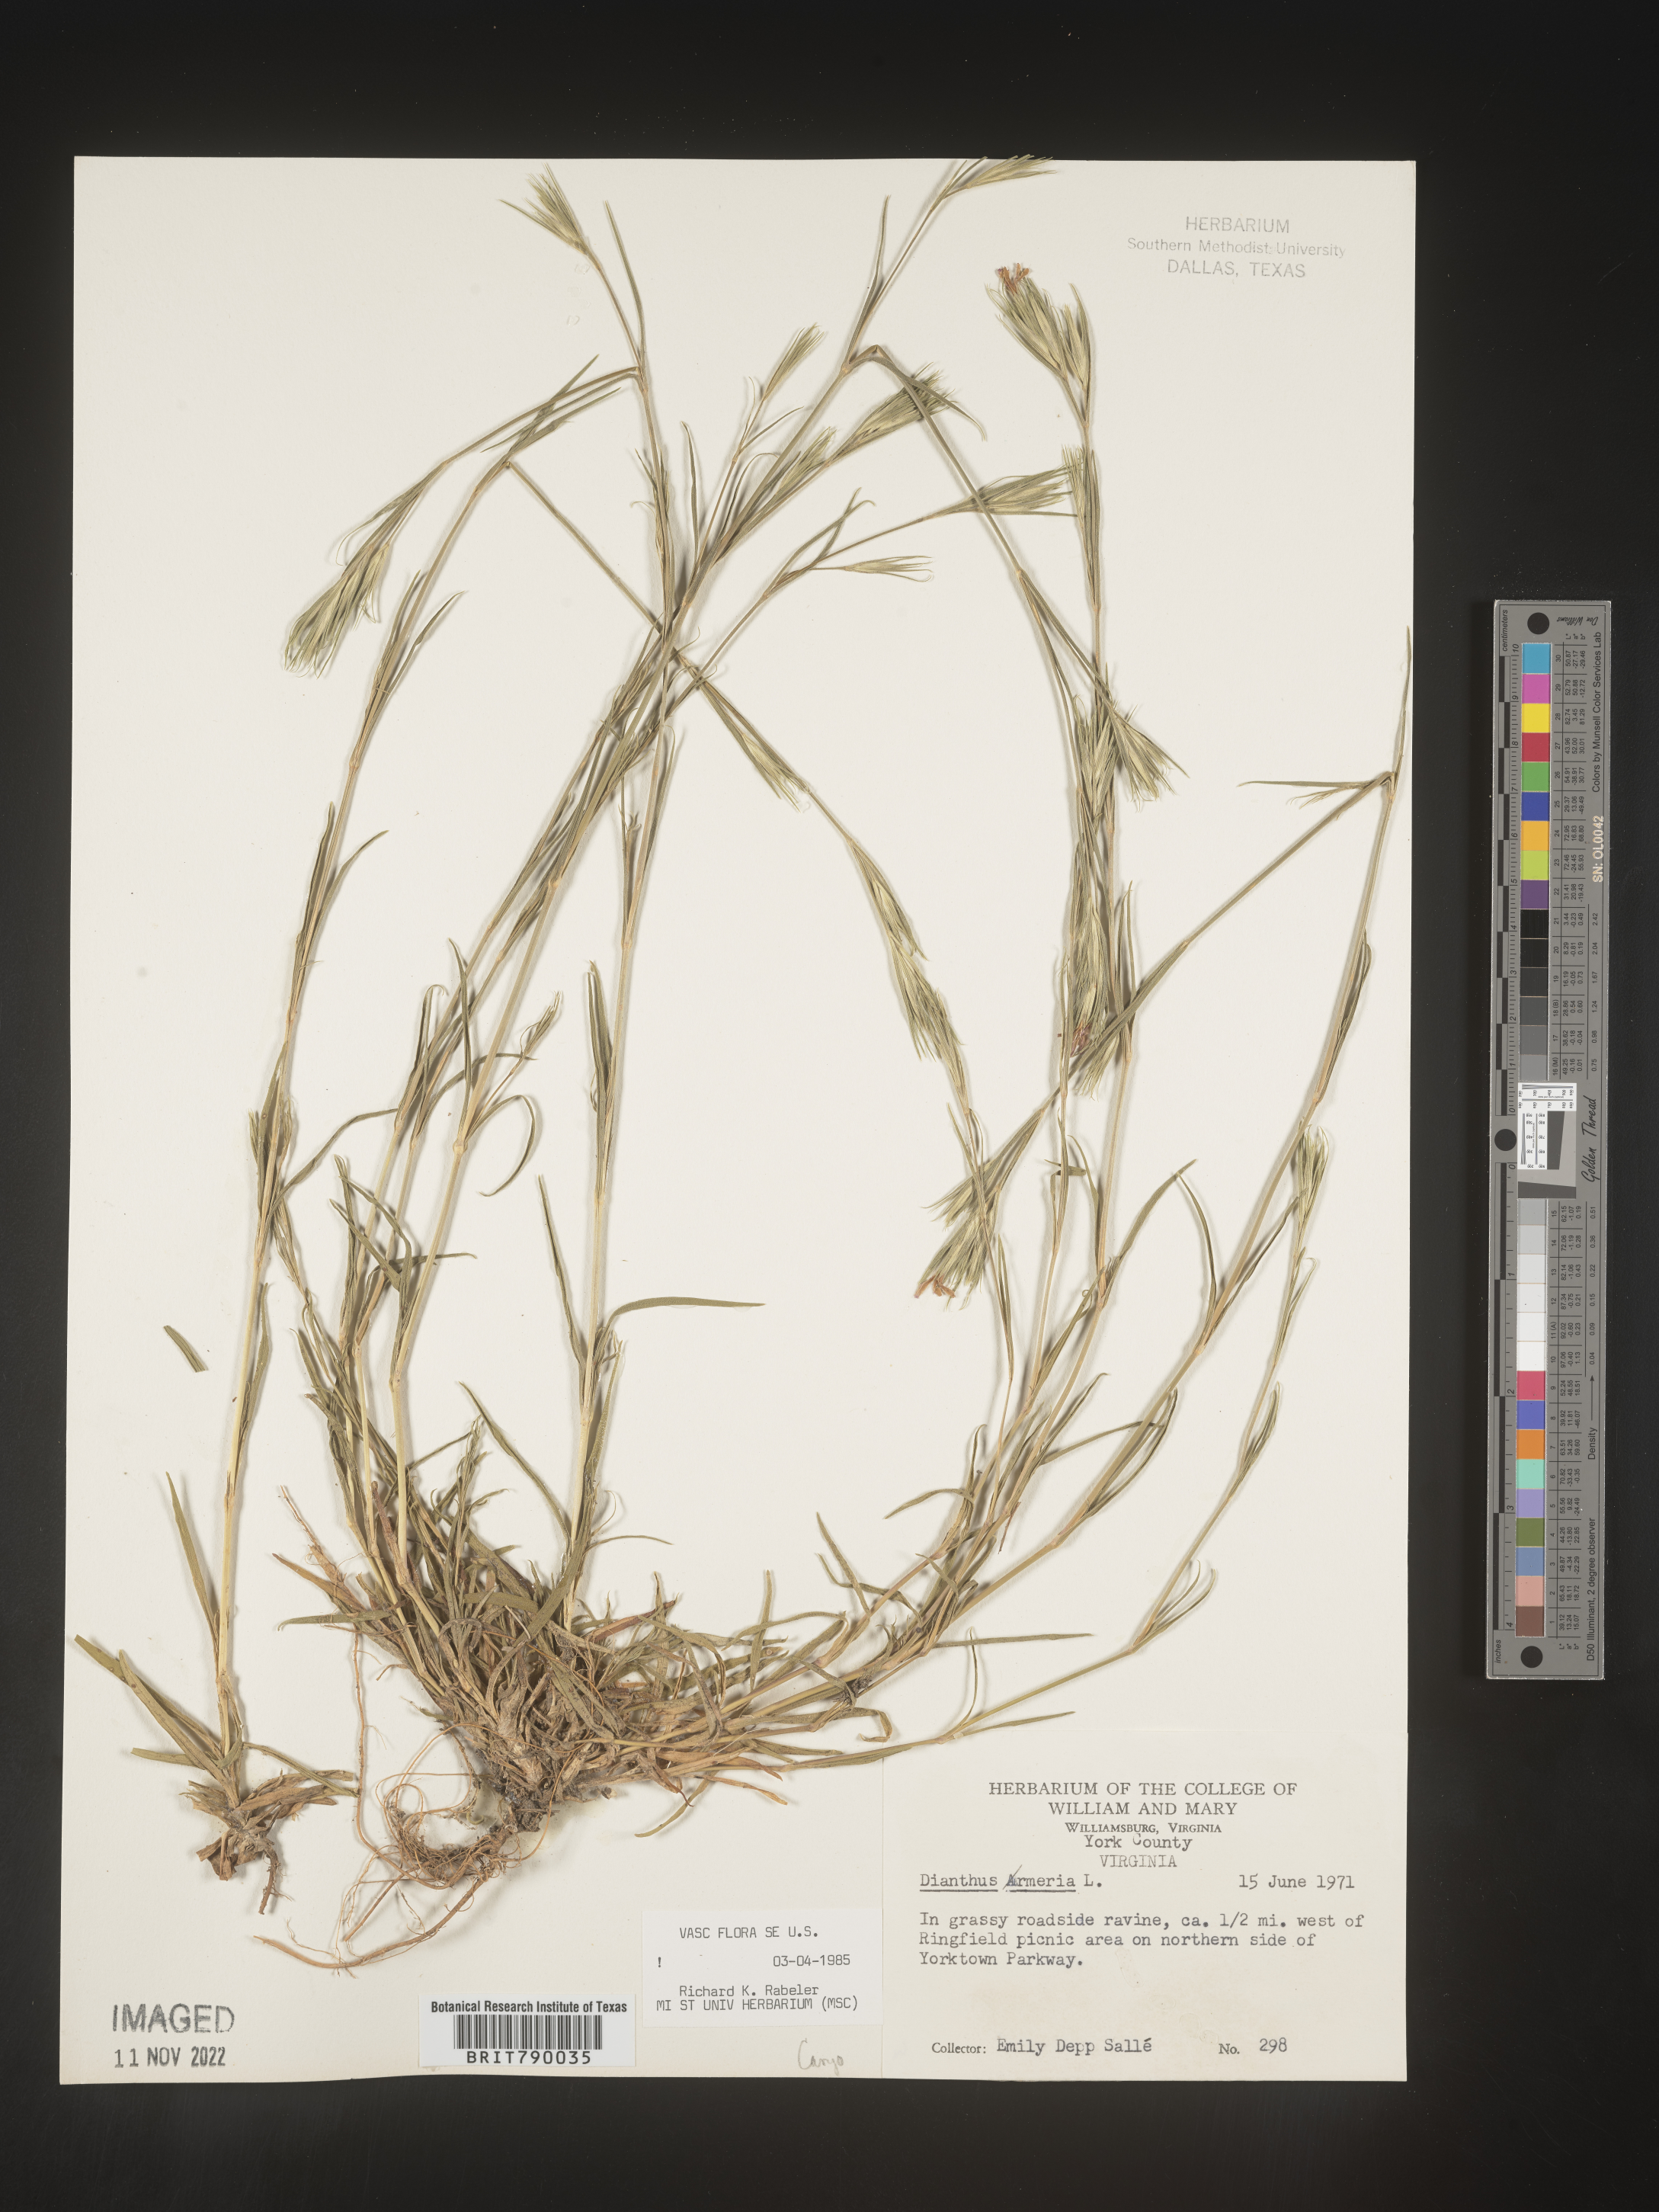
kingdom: Plantae
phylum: Tracheophyta
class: Magnoliopsida
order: Caryophyllales
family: Caryophyllaceae
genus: Dianthus
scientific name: Dianthus armeria
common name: Deptford pink
